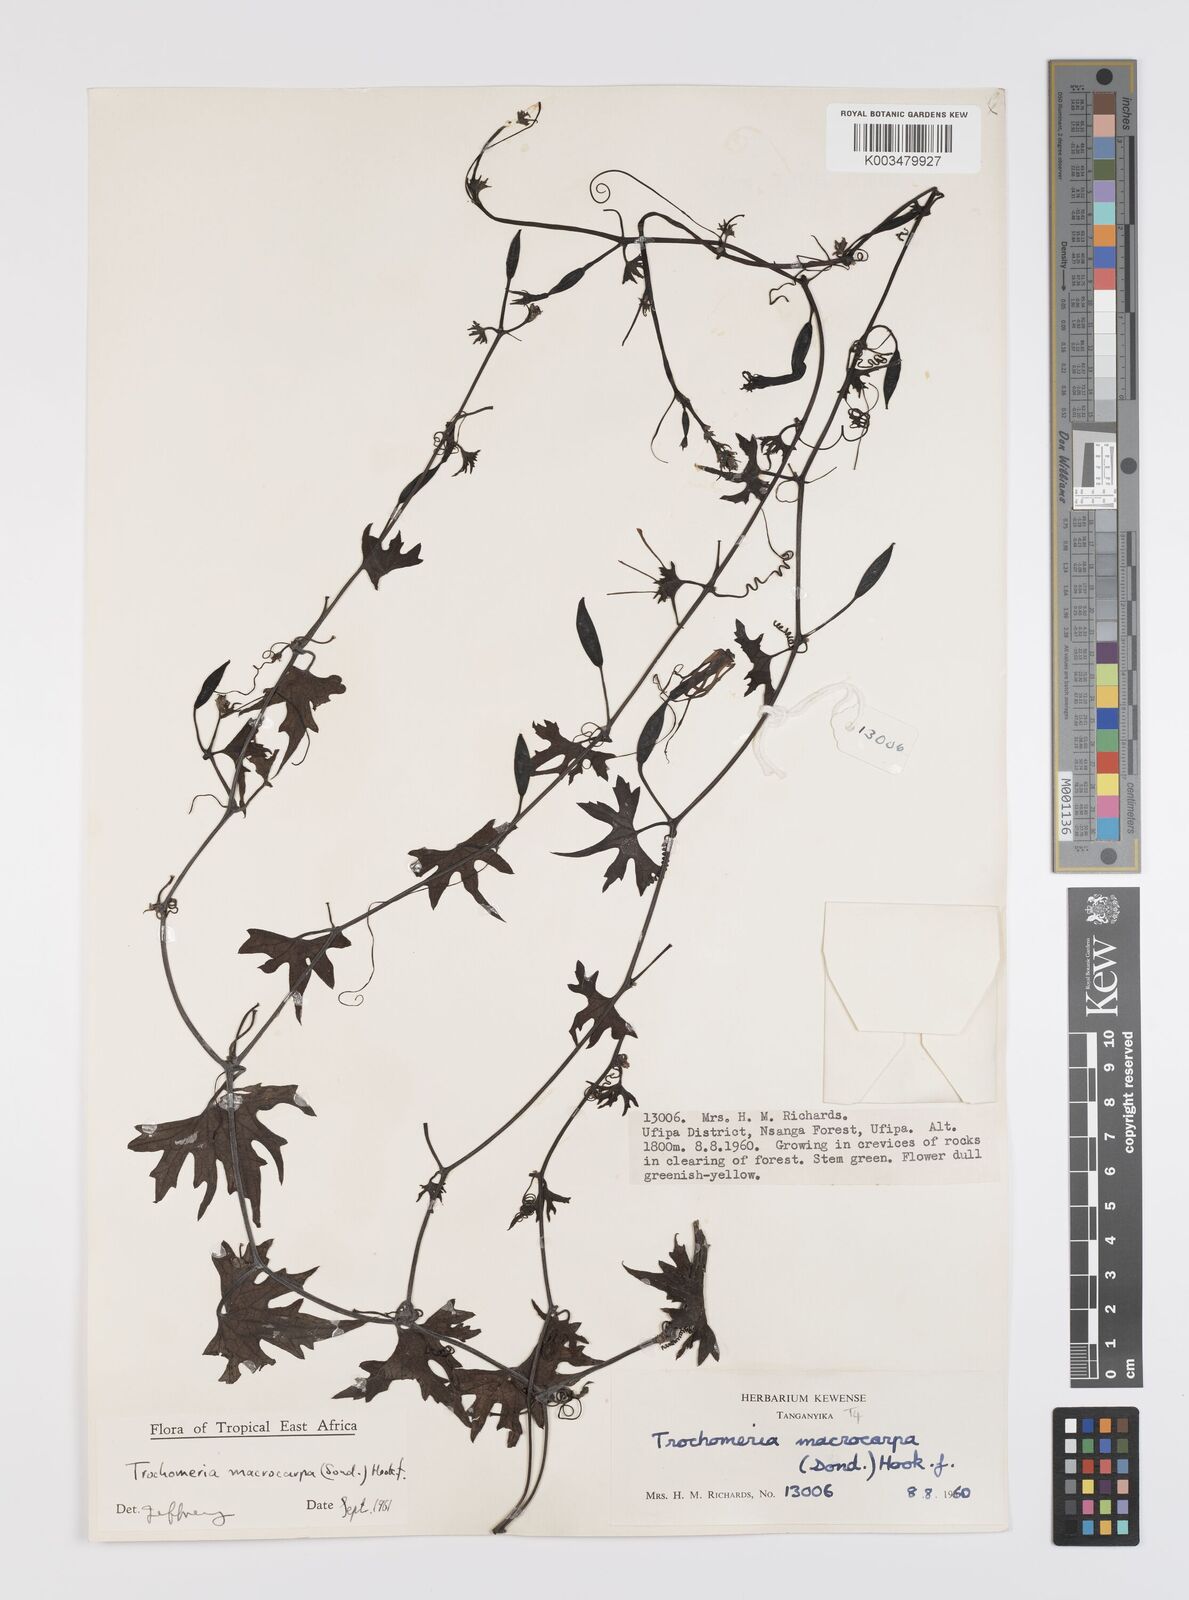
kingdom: Plantae
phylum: Tracheophyta
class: Magnoliopsida
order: Cucurbitales
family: Cucurbitaceae
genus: Trochomeria
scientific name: Trochomeria macrocarpa
